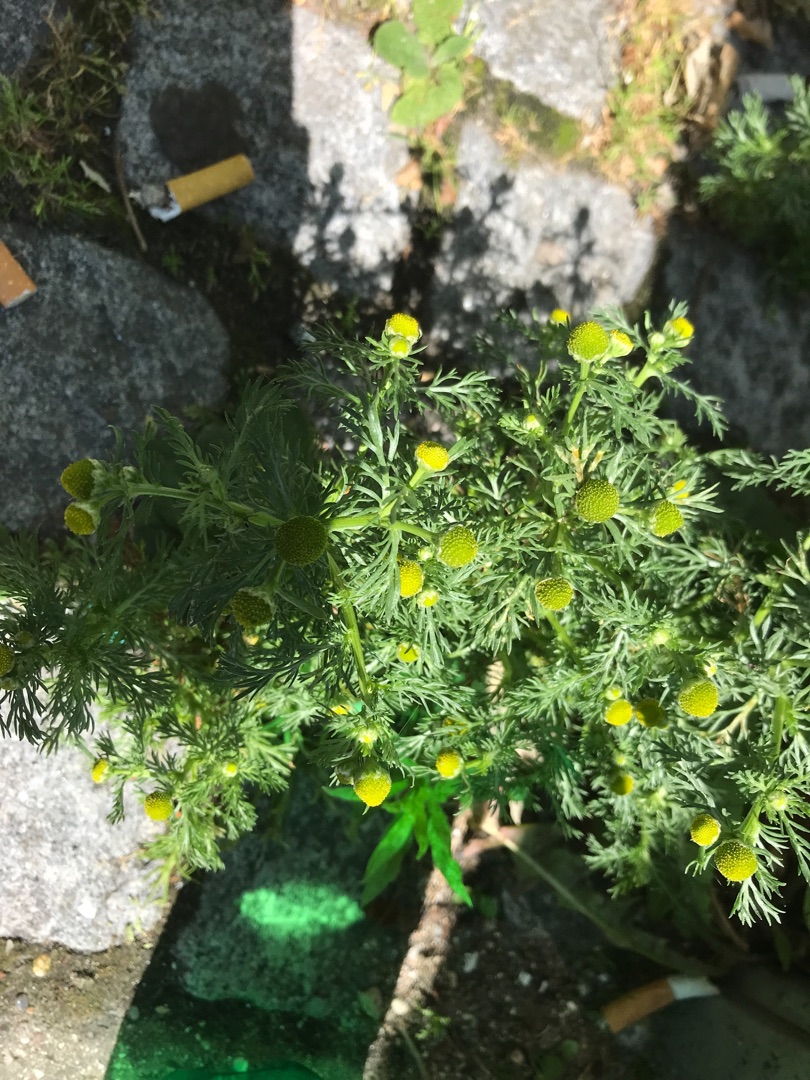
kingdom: Plantae
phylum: Tracheophyta
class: Magnoliopsida
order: Asterales
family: Asteraceae
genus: Matricaria
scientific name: Matricaria discoidea
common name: Skive-kamille
